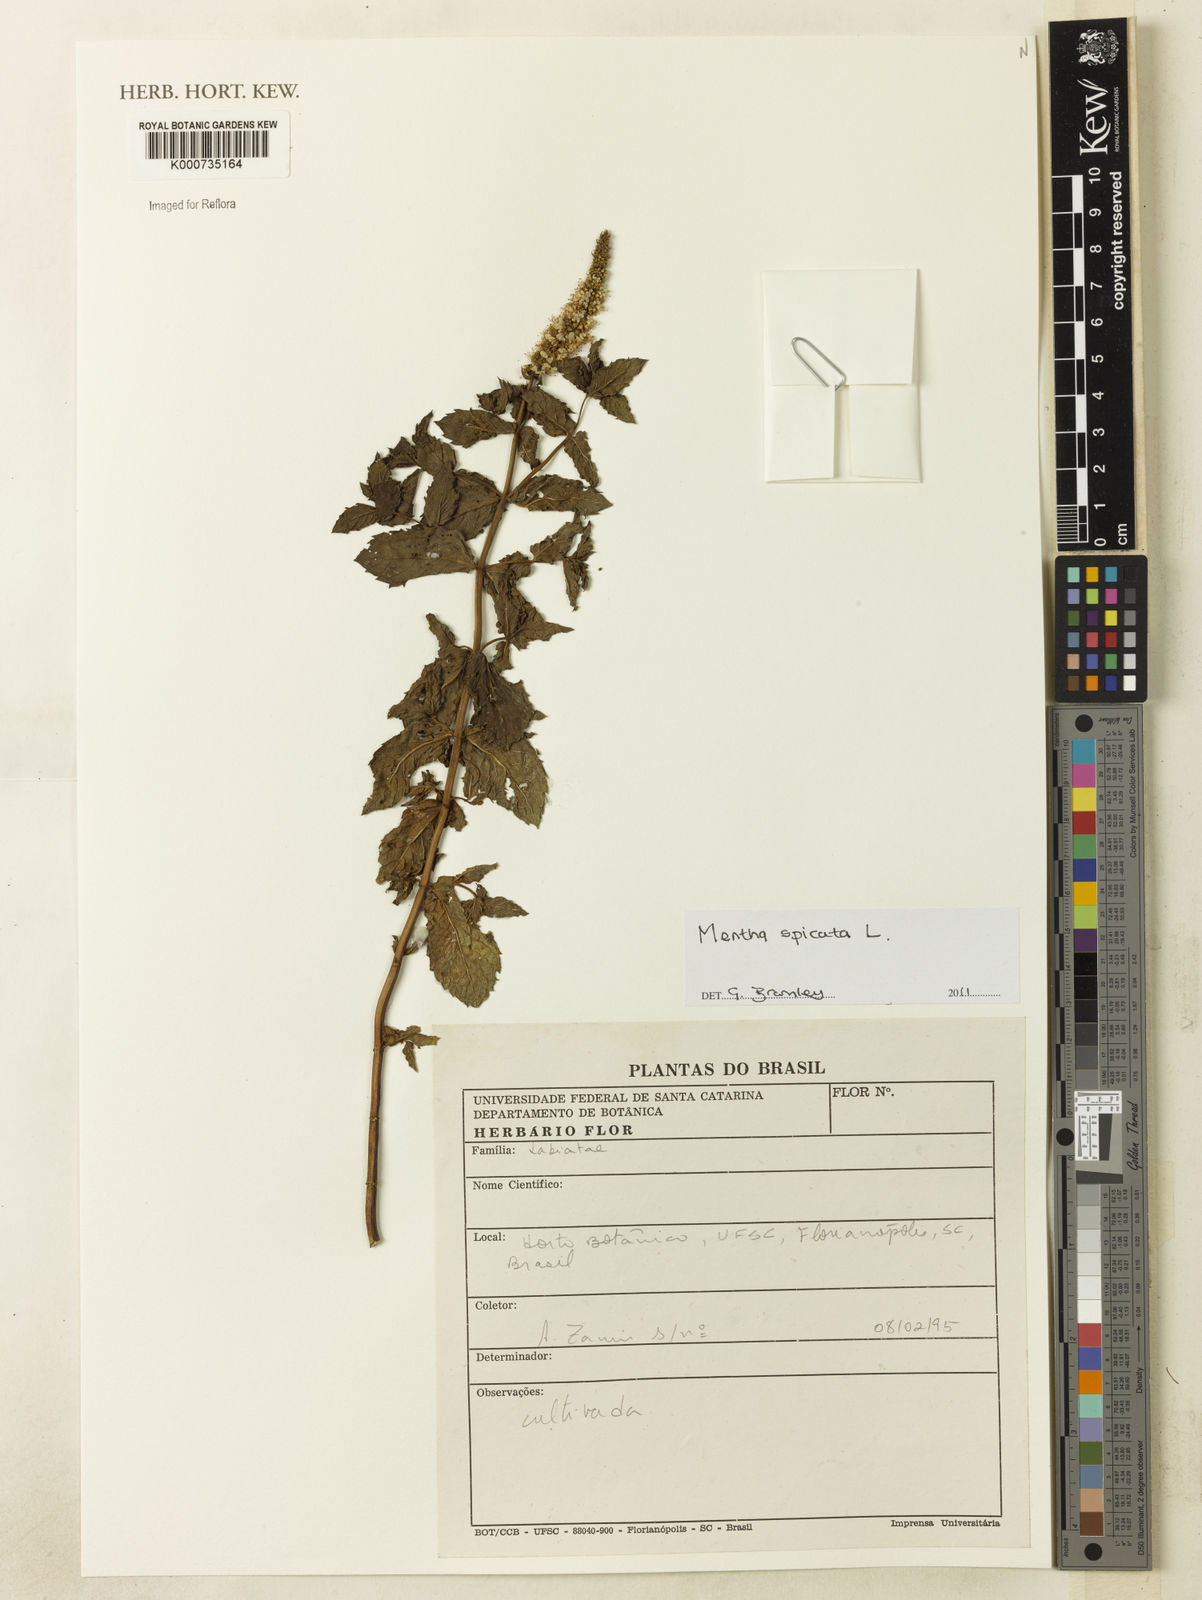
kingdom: Plantae
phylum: Tracheophyta
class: Magnoliopsida
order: Lamiales
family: Lamiaceae
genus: Mentha
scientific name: Mentha spicata
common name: Spearmint
